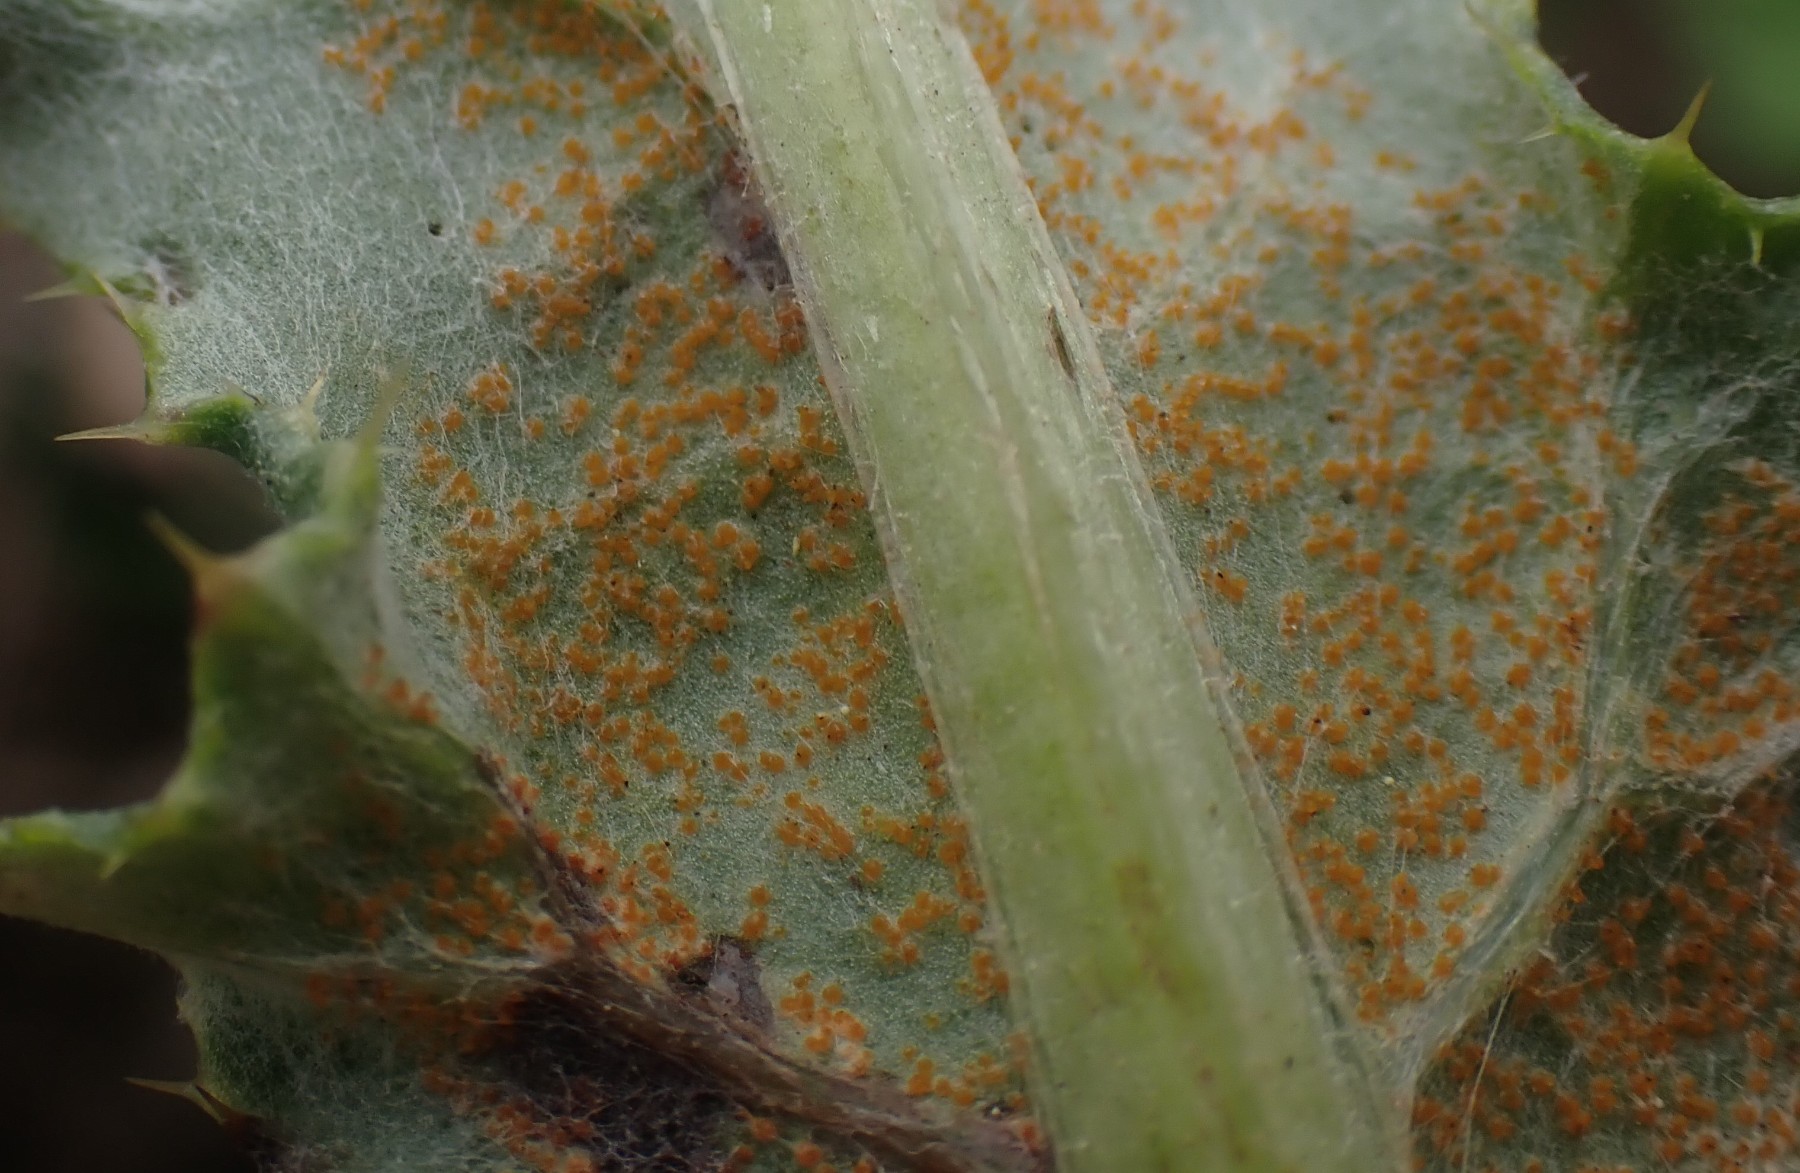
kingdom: Fungi
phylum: Basidiomycota
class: Pucciniomycetes
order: Pucciniales
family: Pucciniaceae
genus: Puccinia
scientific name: Puccinia suaveolens
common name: tidsel-tvecellerust
